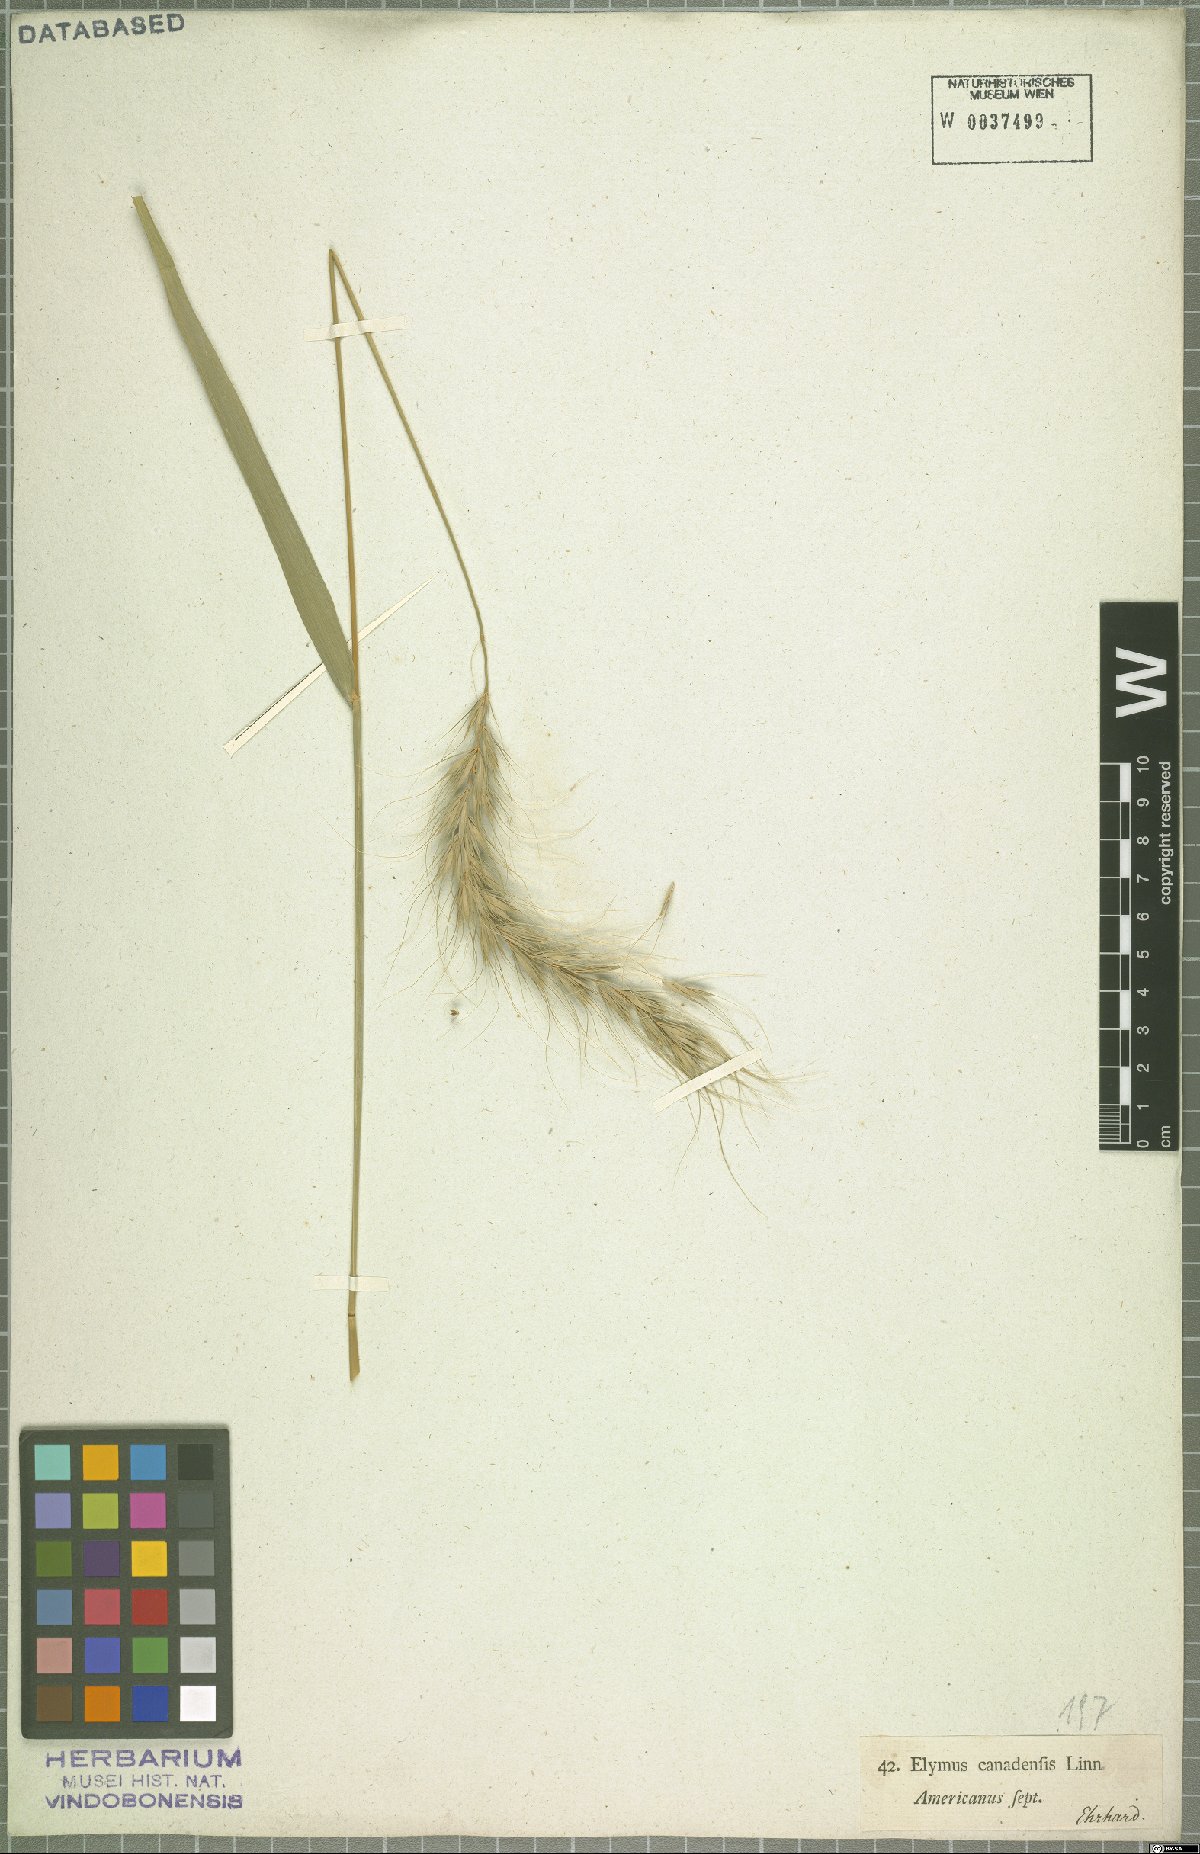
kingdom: Plantae
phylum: Tracheophyta
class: Liliopsida
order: Poales
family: Poaceae
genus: Elymus
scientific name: Elymus canadensis
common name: Canada wild rye
